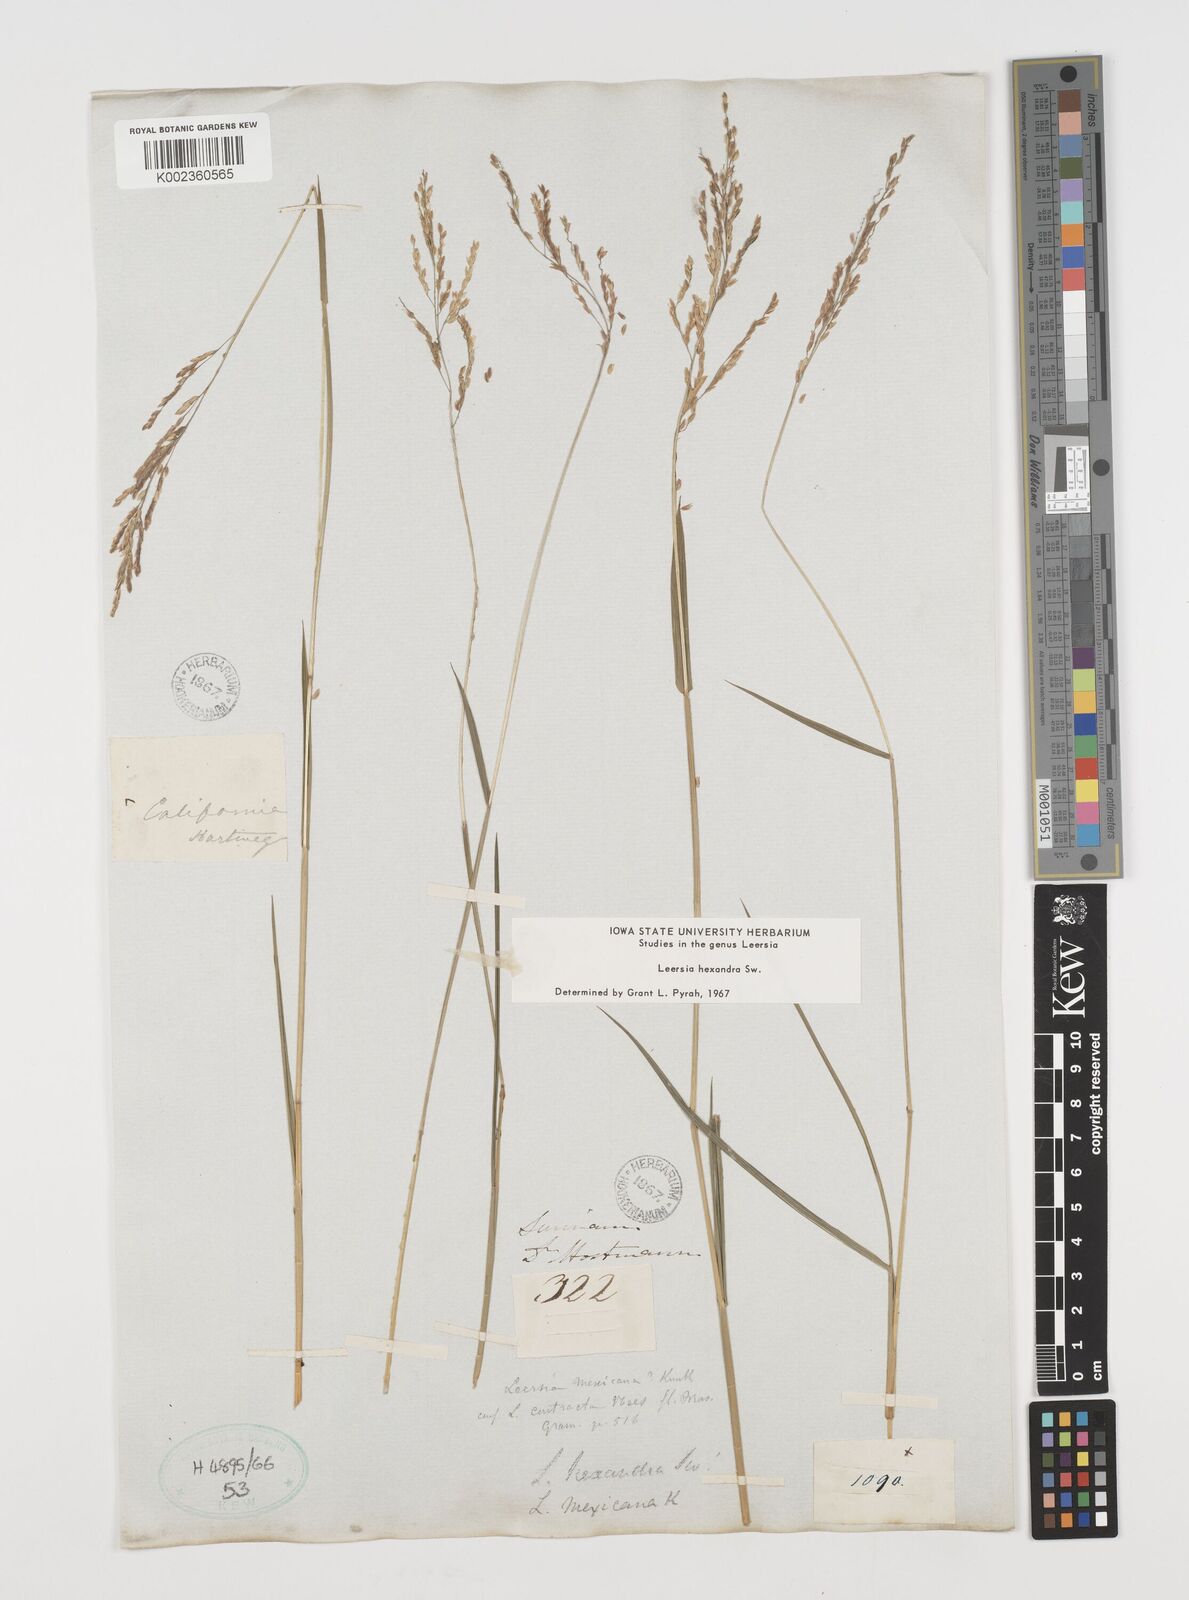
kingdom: Plantae
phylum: Tracheophyta
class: Liliopsida
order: Poales
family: Poaceae
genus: Leersia
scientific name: Leersia hexandra
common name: Southern cut grass
